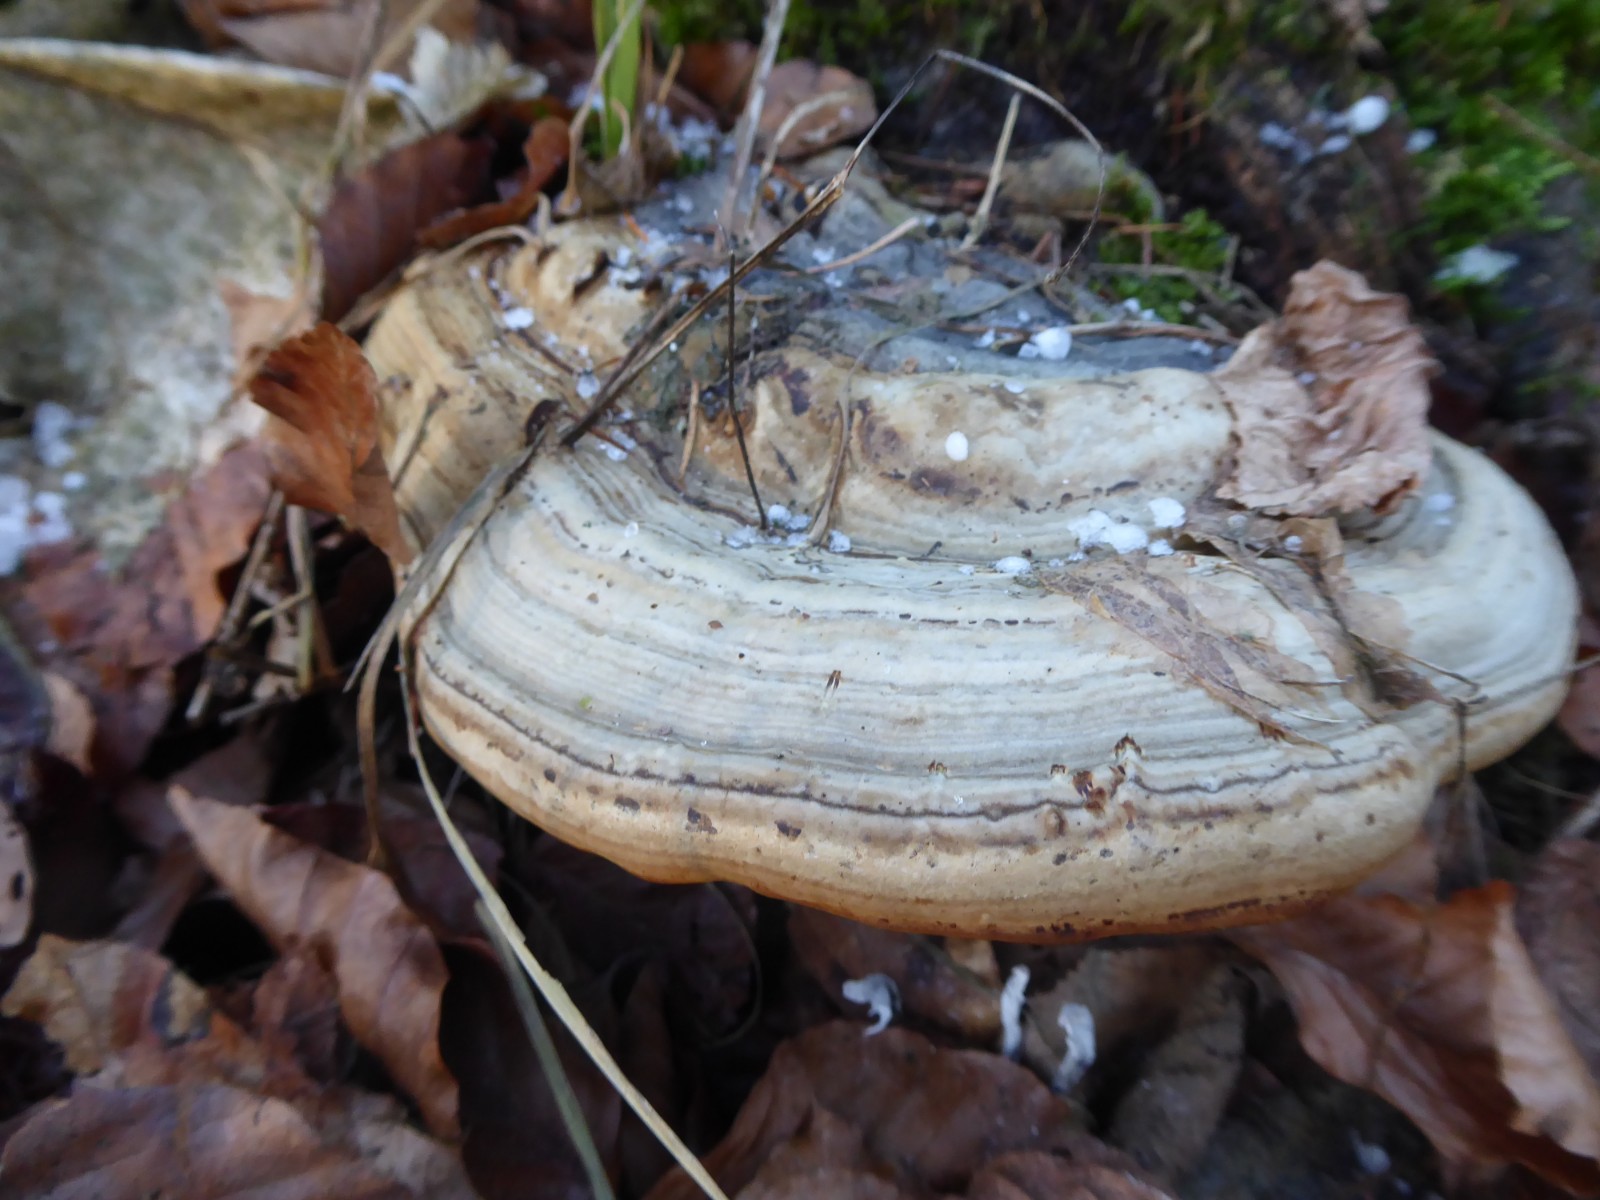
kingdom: Fungi
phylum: Basidiomycota
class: Agaricomycetes
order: Polyporales
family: Polyporaceae
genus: Ganoderma
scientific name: Ganoderma applanatum
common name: flad lakporesvamp
